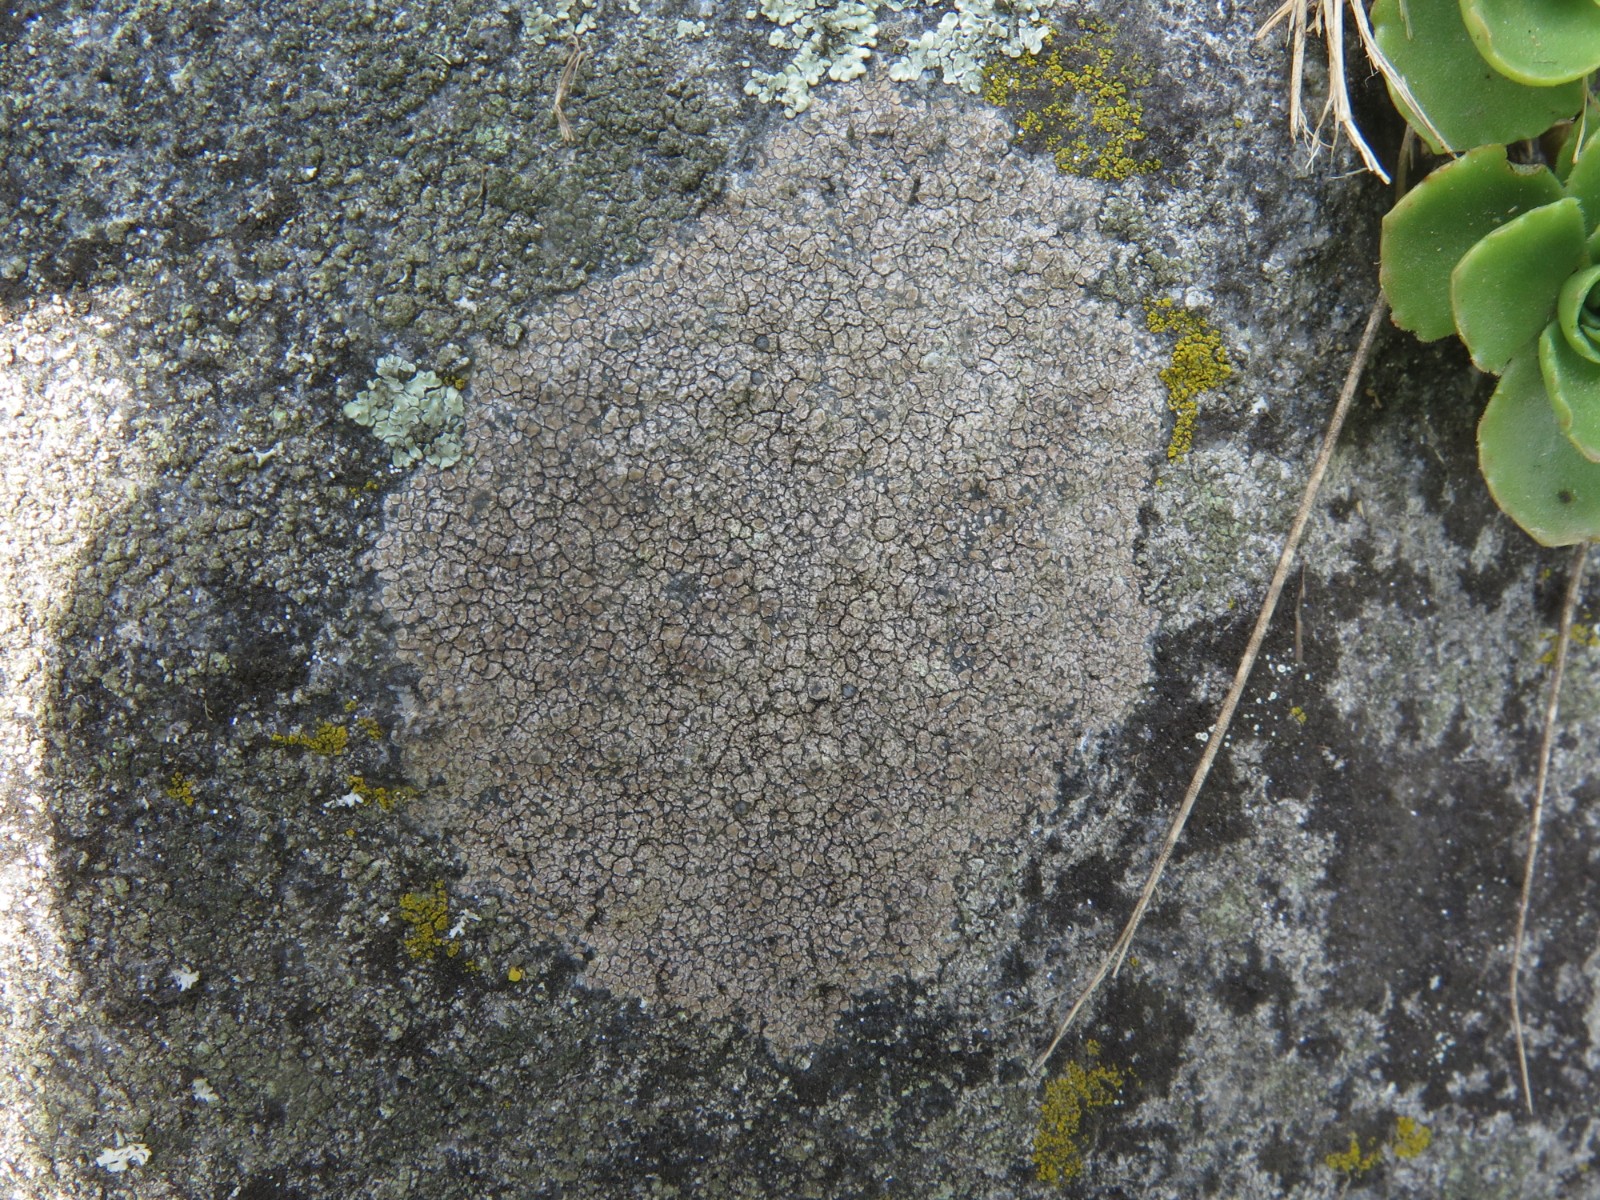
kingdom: Fungi
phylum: Ascomycota
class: Lecanoromycetes
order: Lecideales
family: Lecideaceae
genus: Lecidea
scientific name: Lecidea fuscoatra
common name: rudret skivelav
